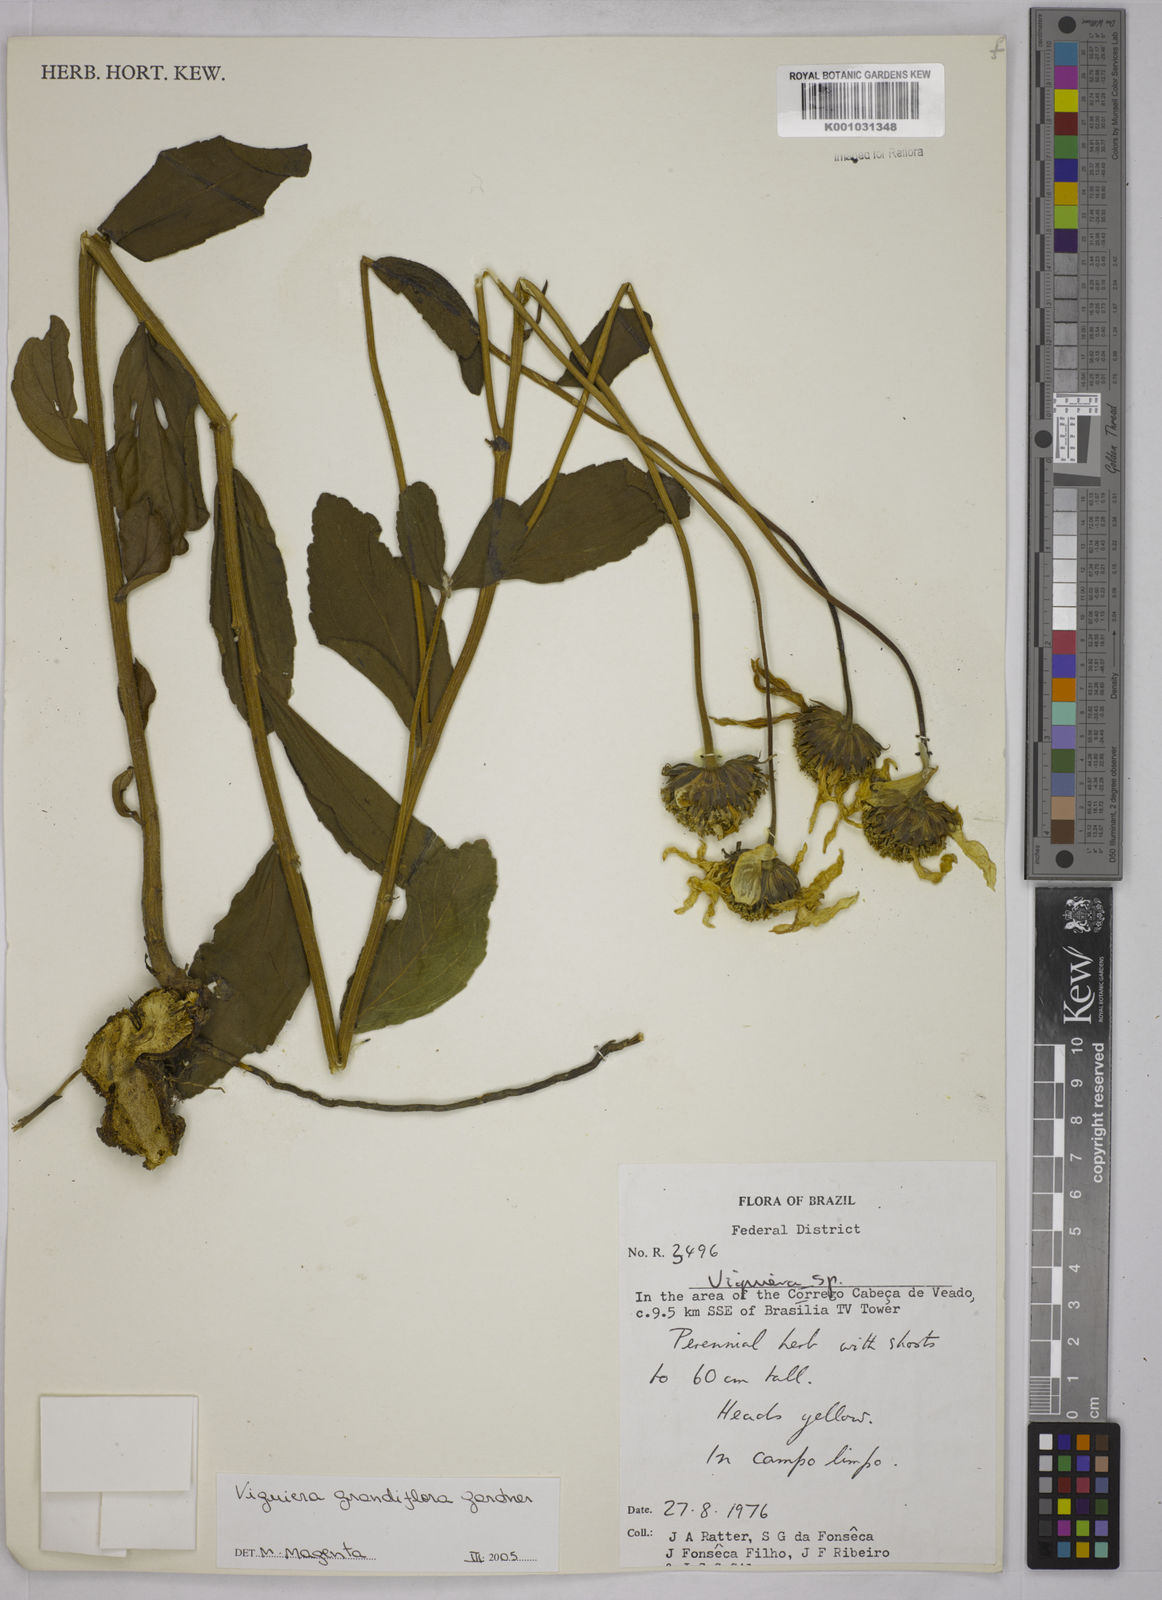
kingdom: Plantae
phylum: Tracheophyta
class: Magnoliopsida
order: Asterales
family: Asteraceae
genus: Aldama
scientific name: Aldama grandiflora
